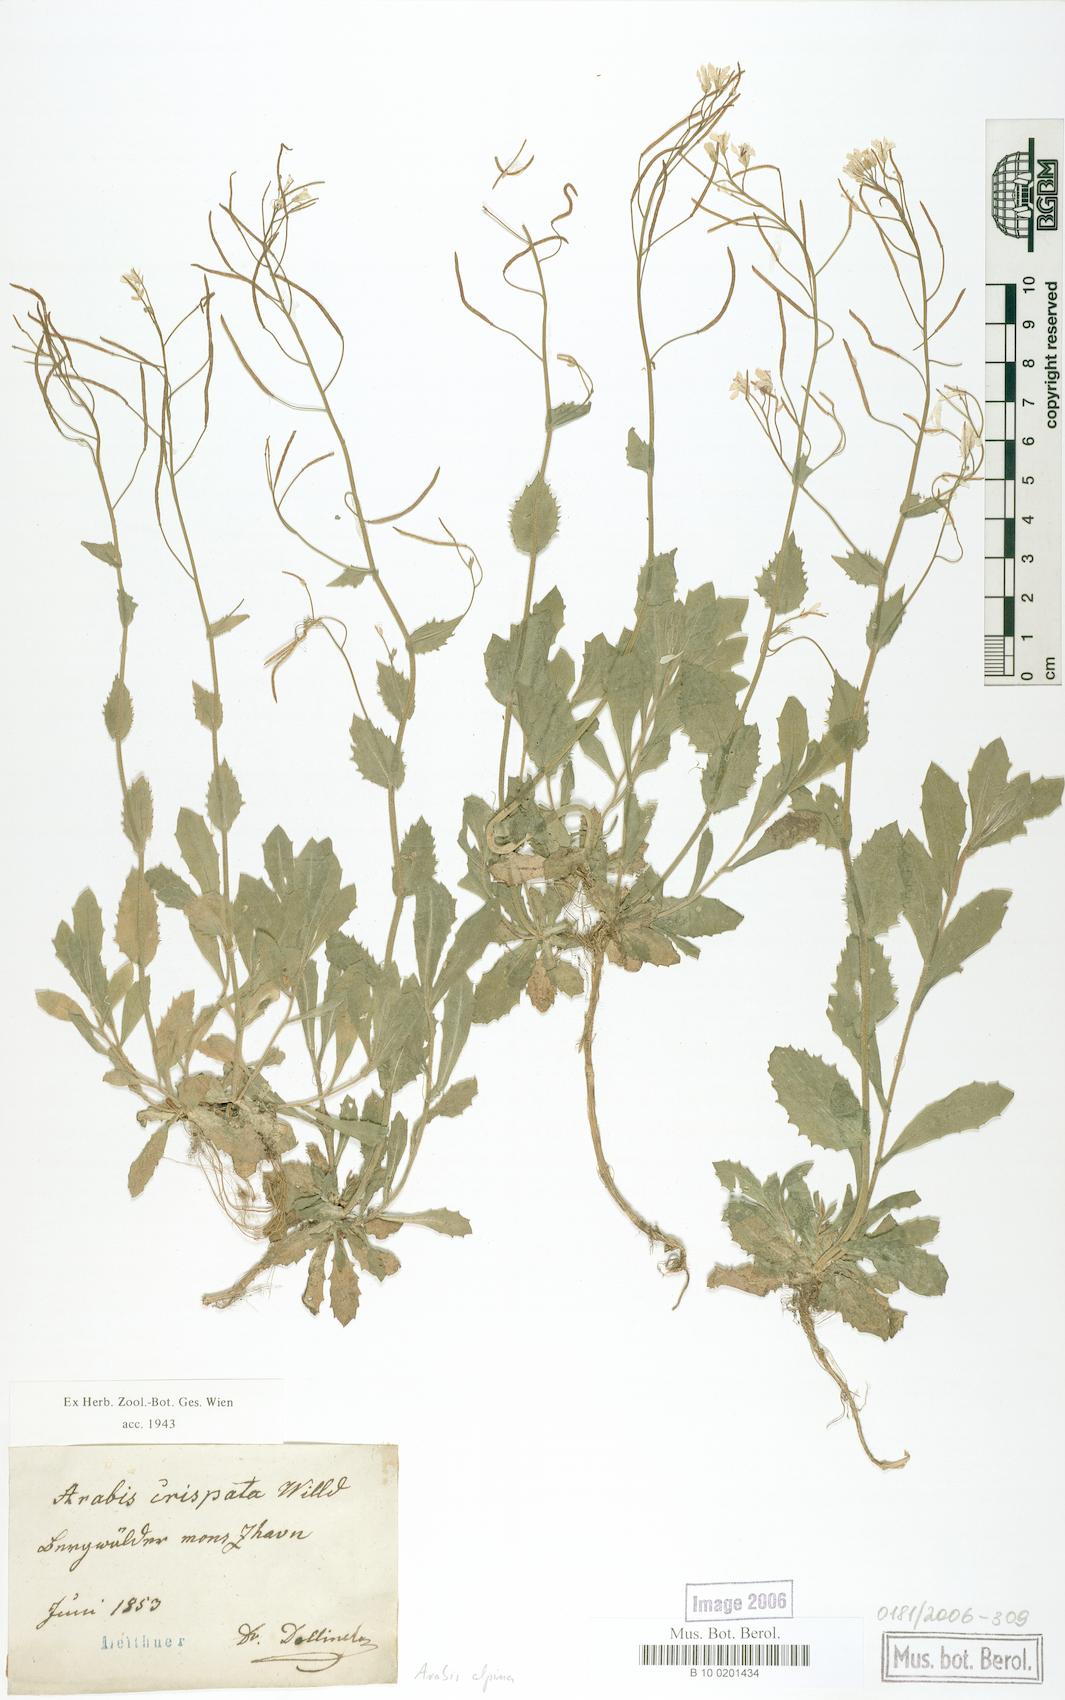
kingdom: Plantae
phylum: Tracheophyta
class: Magnoliopsida
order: Brassicales
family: Brassicaceae
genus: Arabis
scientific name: Arabis alpina
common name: Alpine rock-cress
